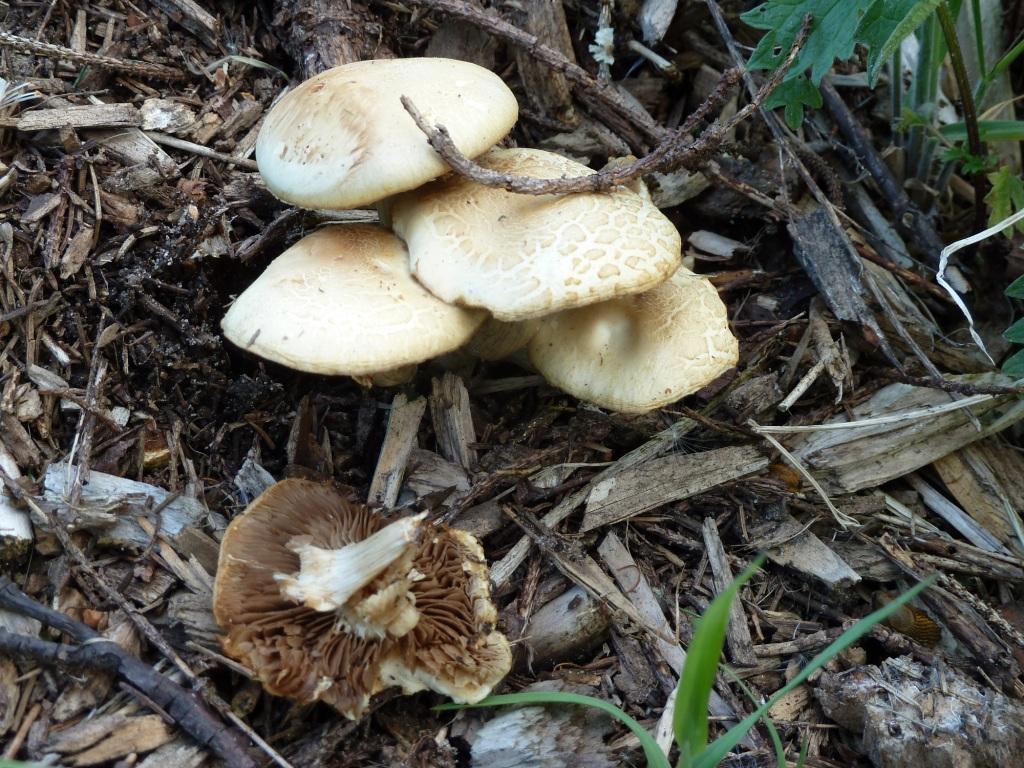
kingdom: Fungi
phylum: Basidiomycota
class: Agaricomycetes
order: Agaricales
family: Strophariaceae
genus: Agrocybe
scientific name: Agrocybe praecox
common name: tidlig agerhat
